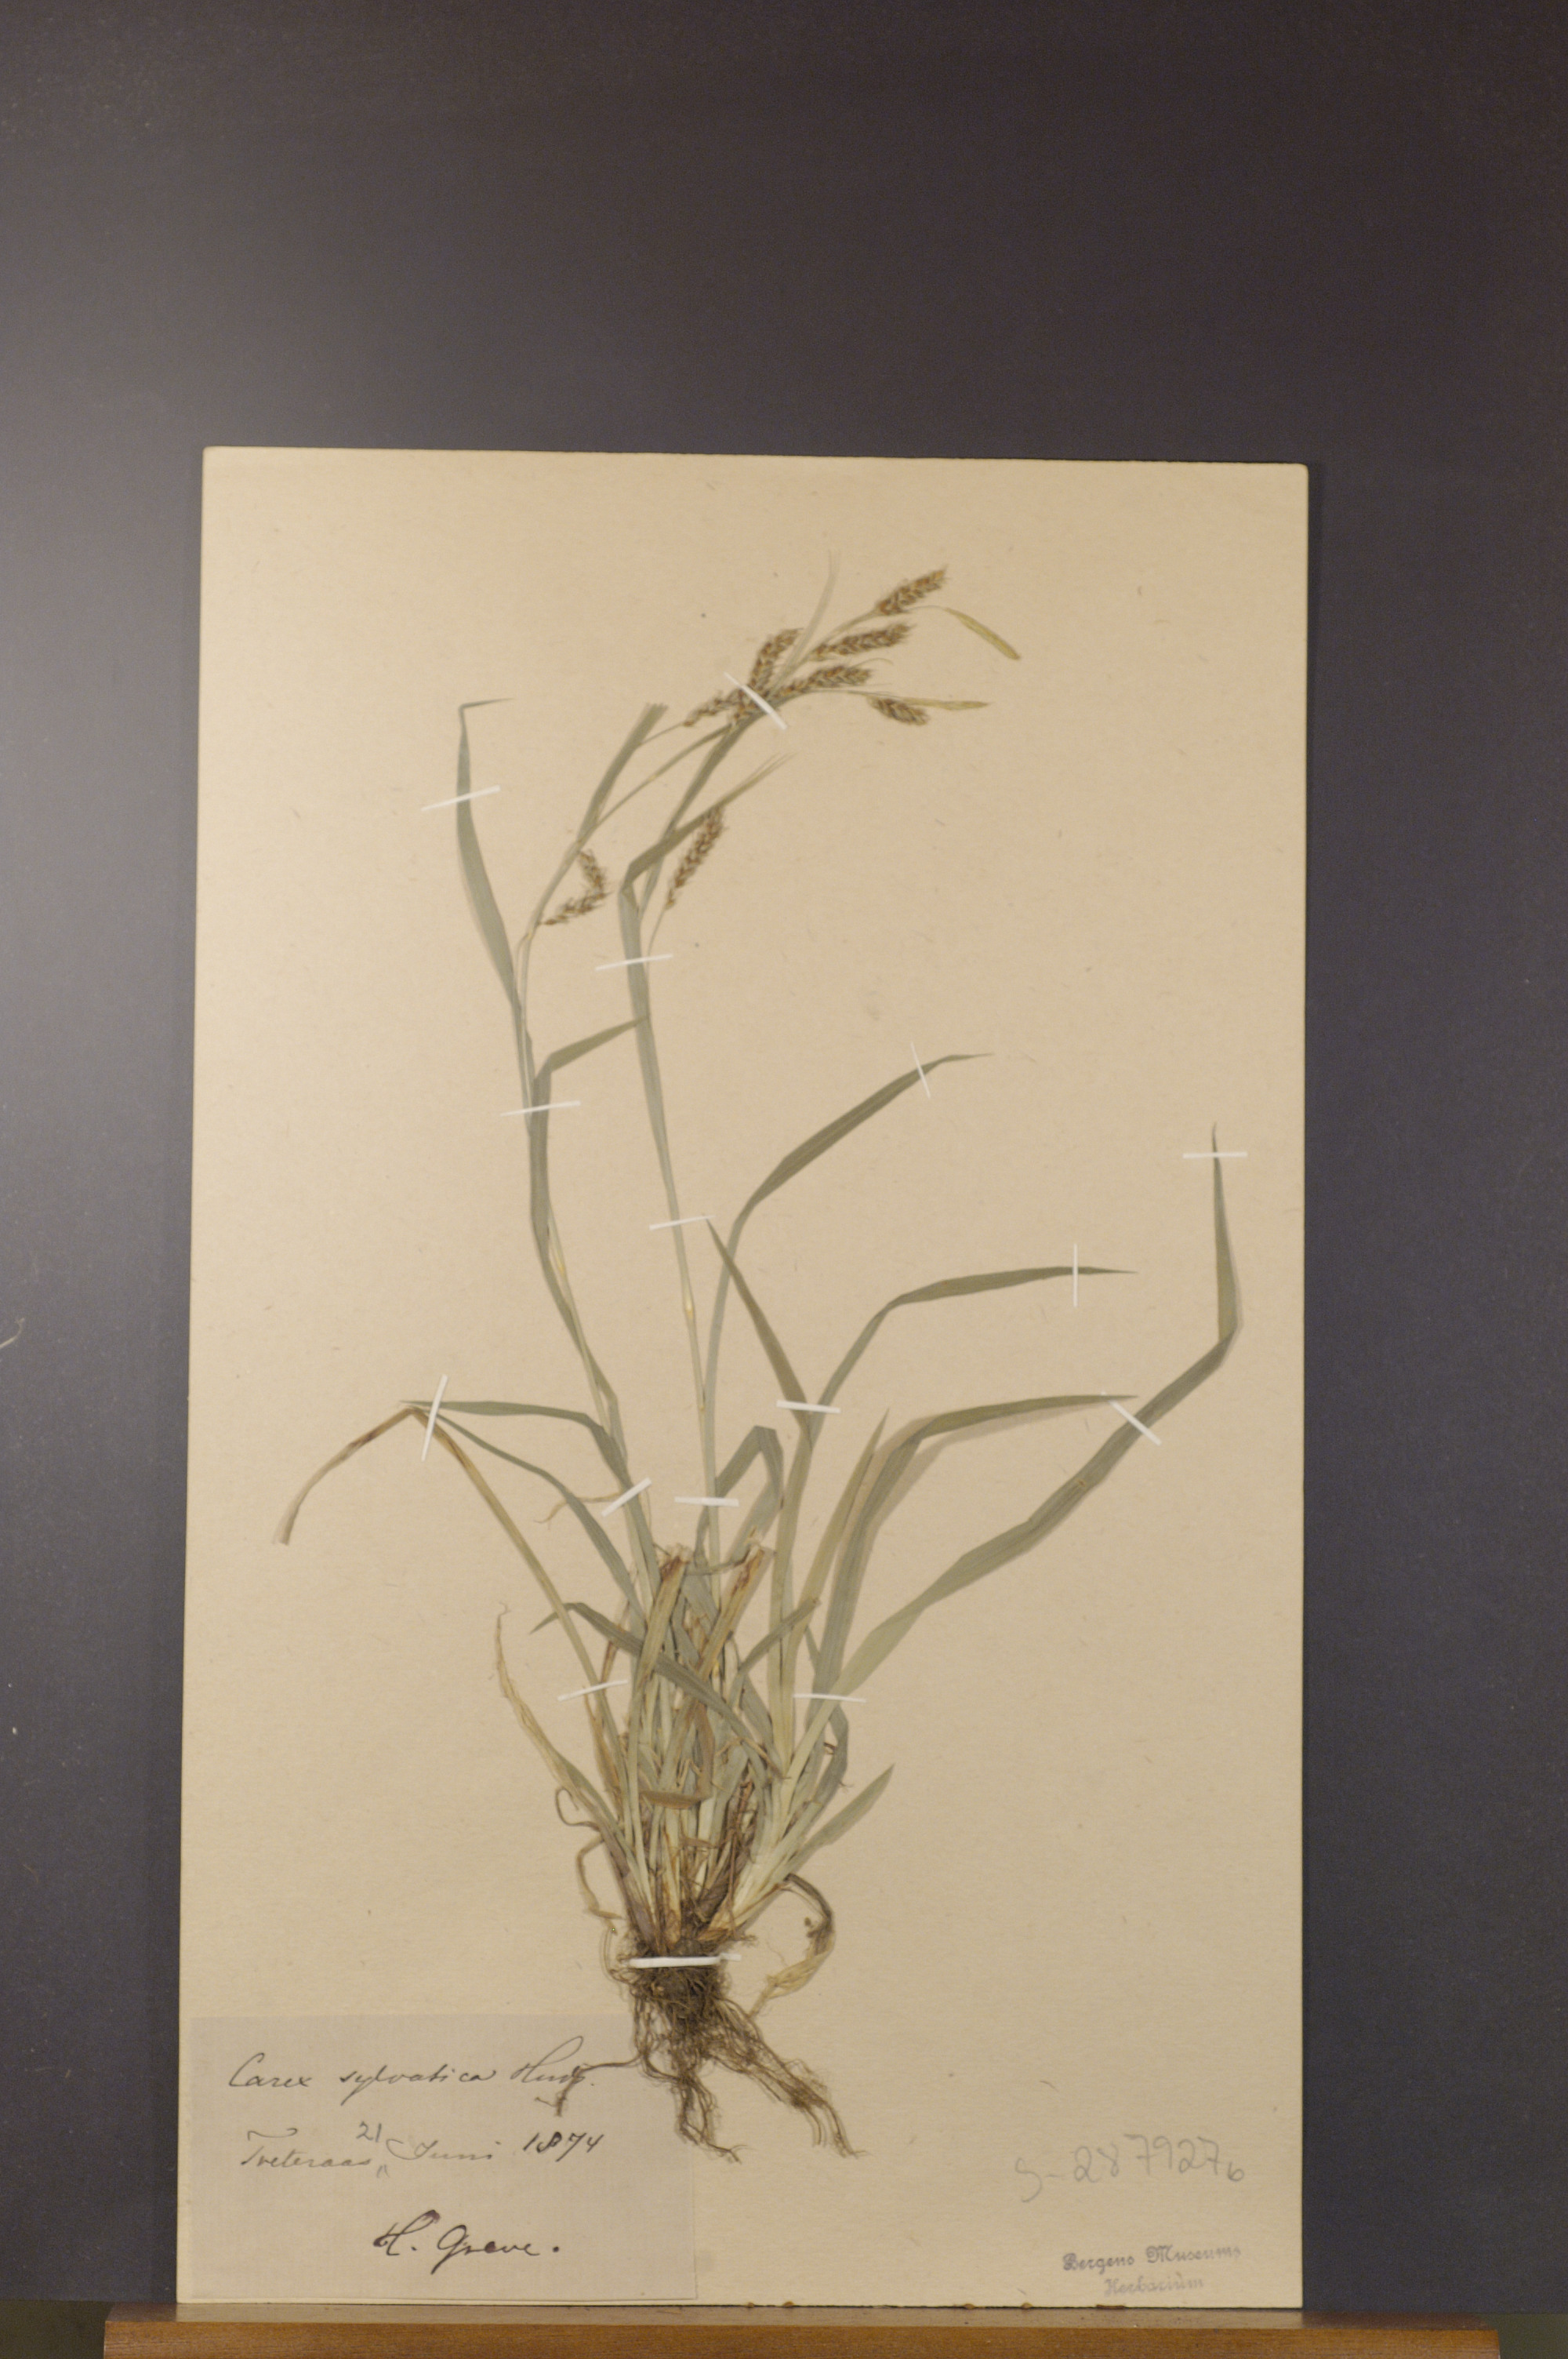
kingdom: Plantae
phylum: Tracheophyta
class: Liliopsida
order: Poales
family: Cyperaceae
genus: Carex
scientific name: Carex sylvatica
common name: Wood-sedge
